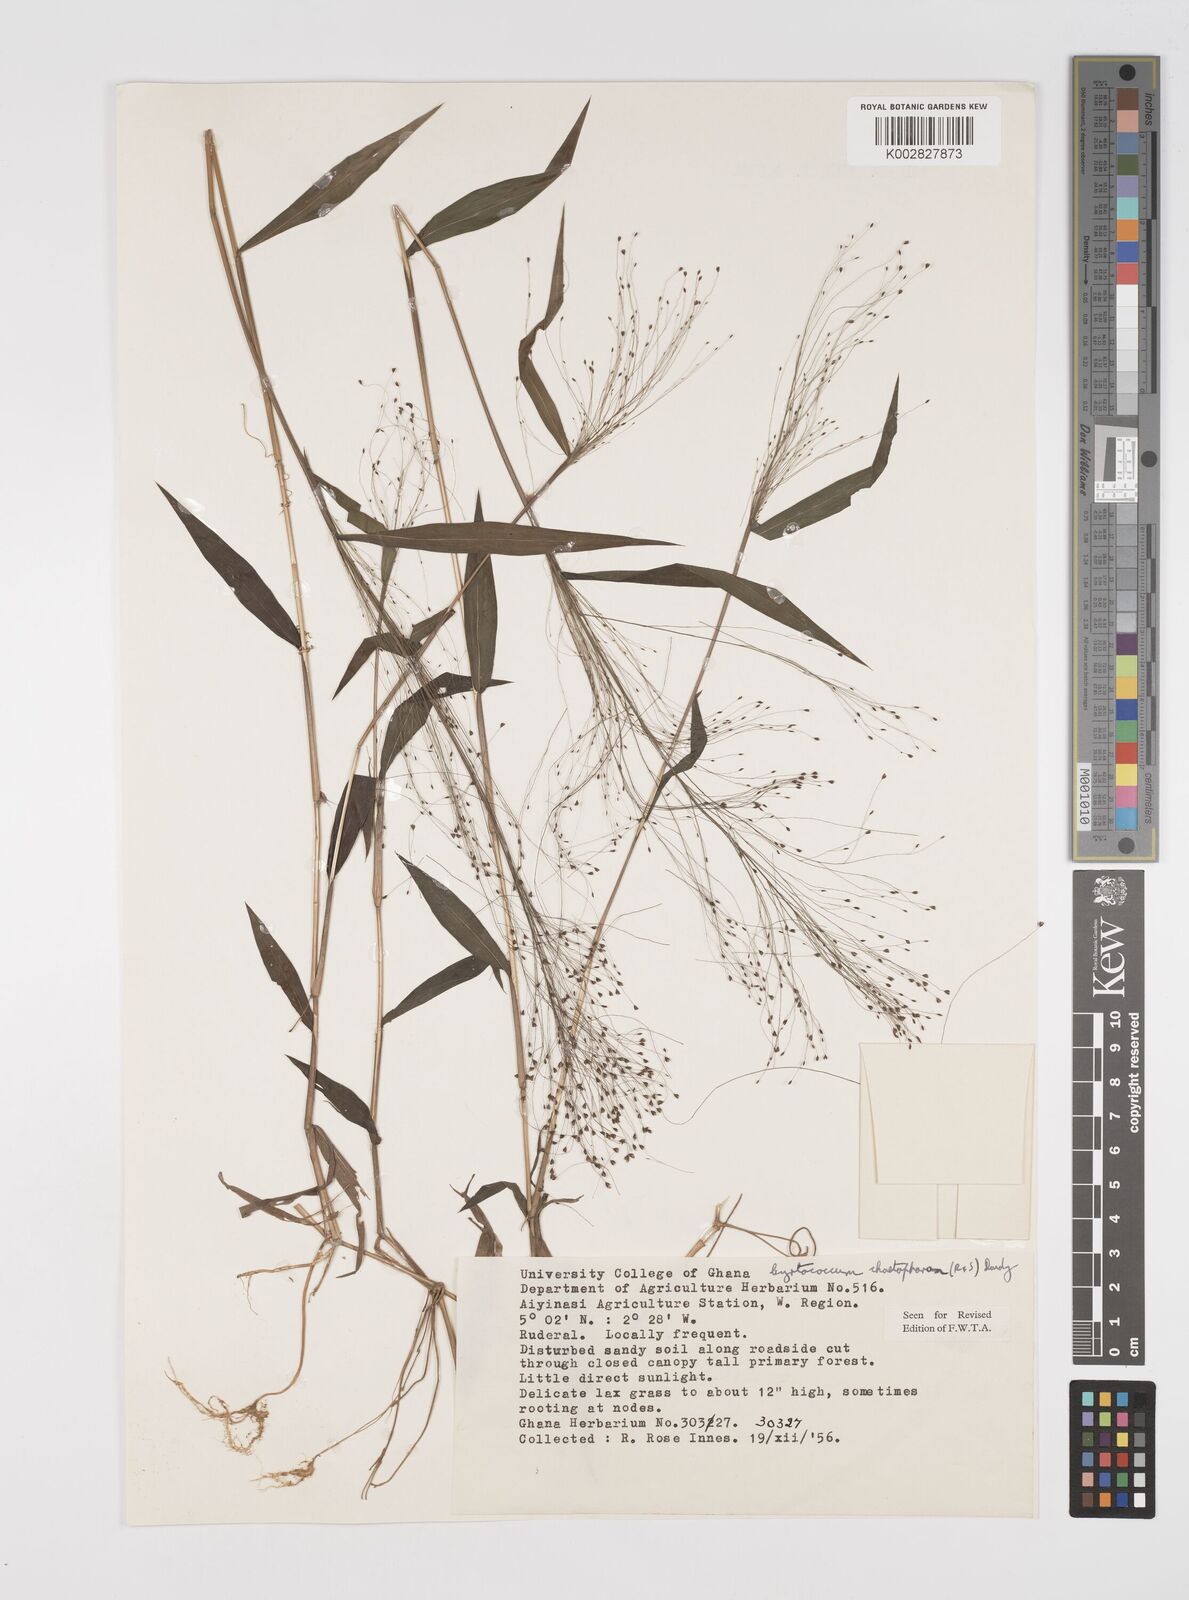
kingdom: Plantae
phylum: Tracheophyta
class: Liliopsida
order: Poales
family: Poaceae
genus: Cyrtococcum
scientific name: Cyrtococcum chaetophoron
